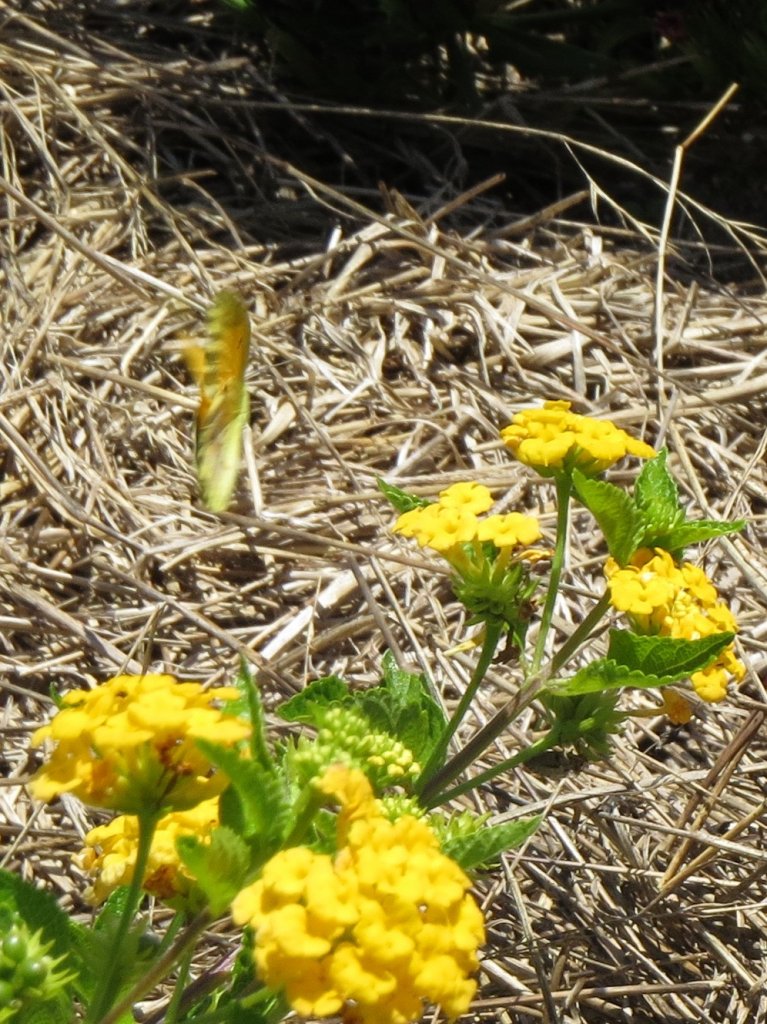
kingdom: Animalia
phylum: Arthropoda
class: Insecta
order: Lepidoptera
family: Pieridae
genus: Abaeis
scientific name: Abaeis nicippe
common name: Sleepy Orange
